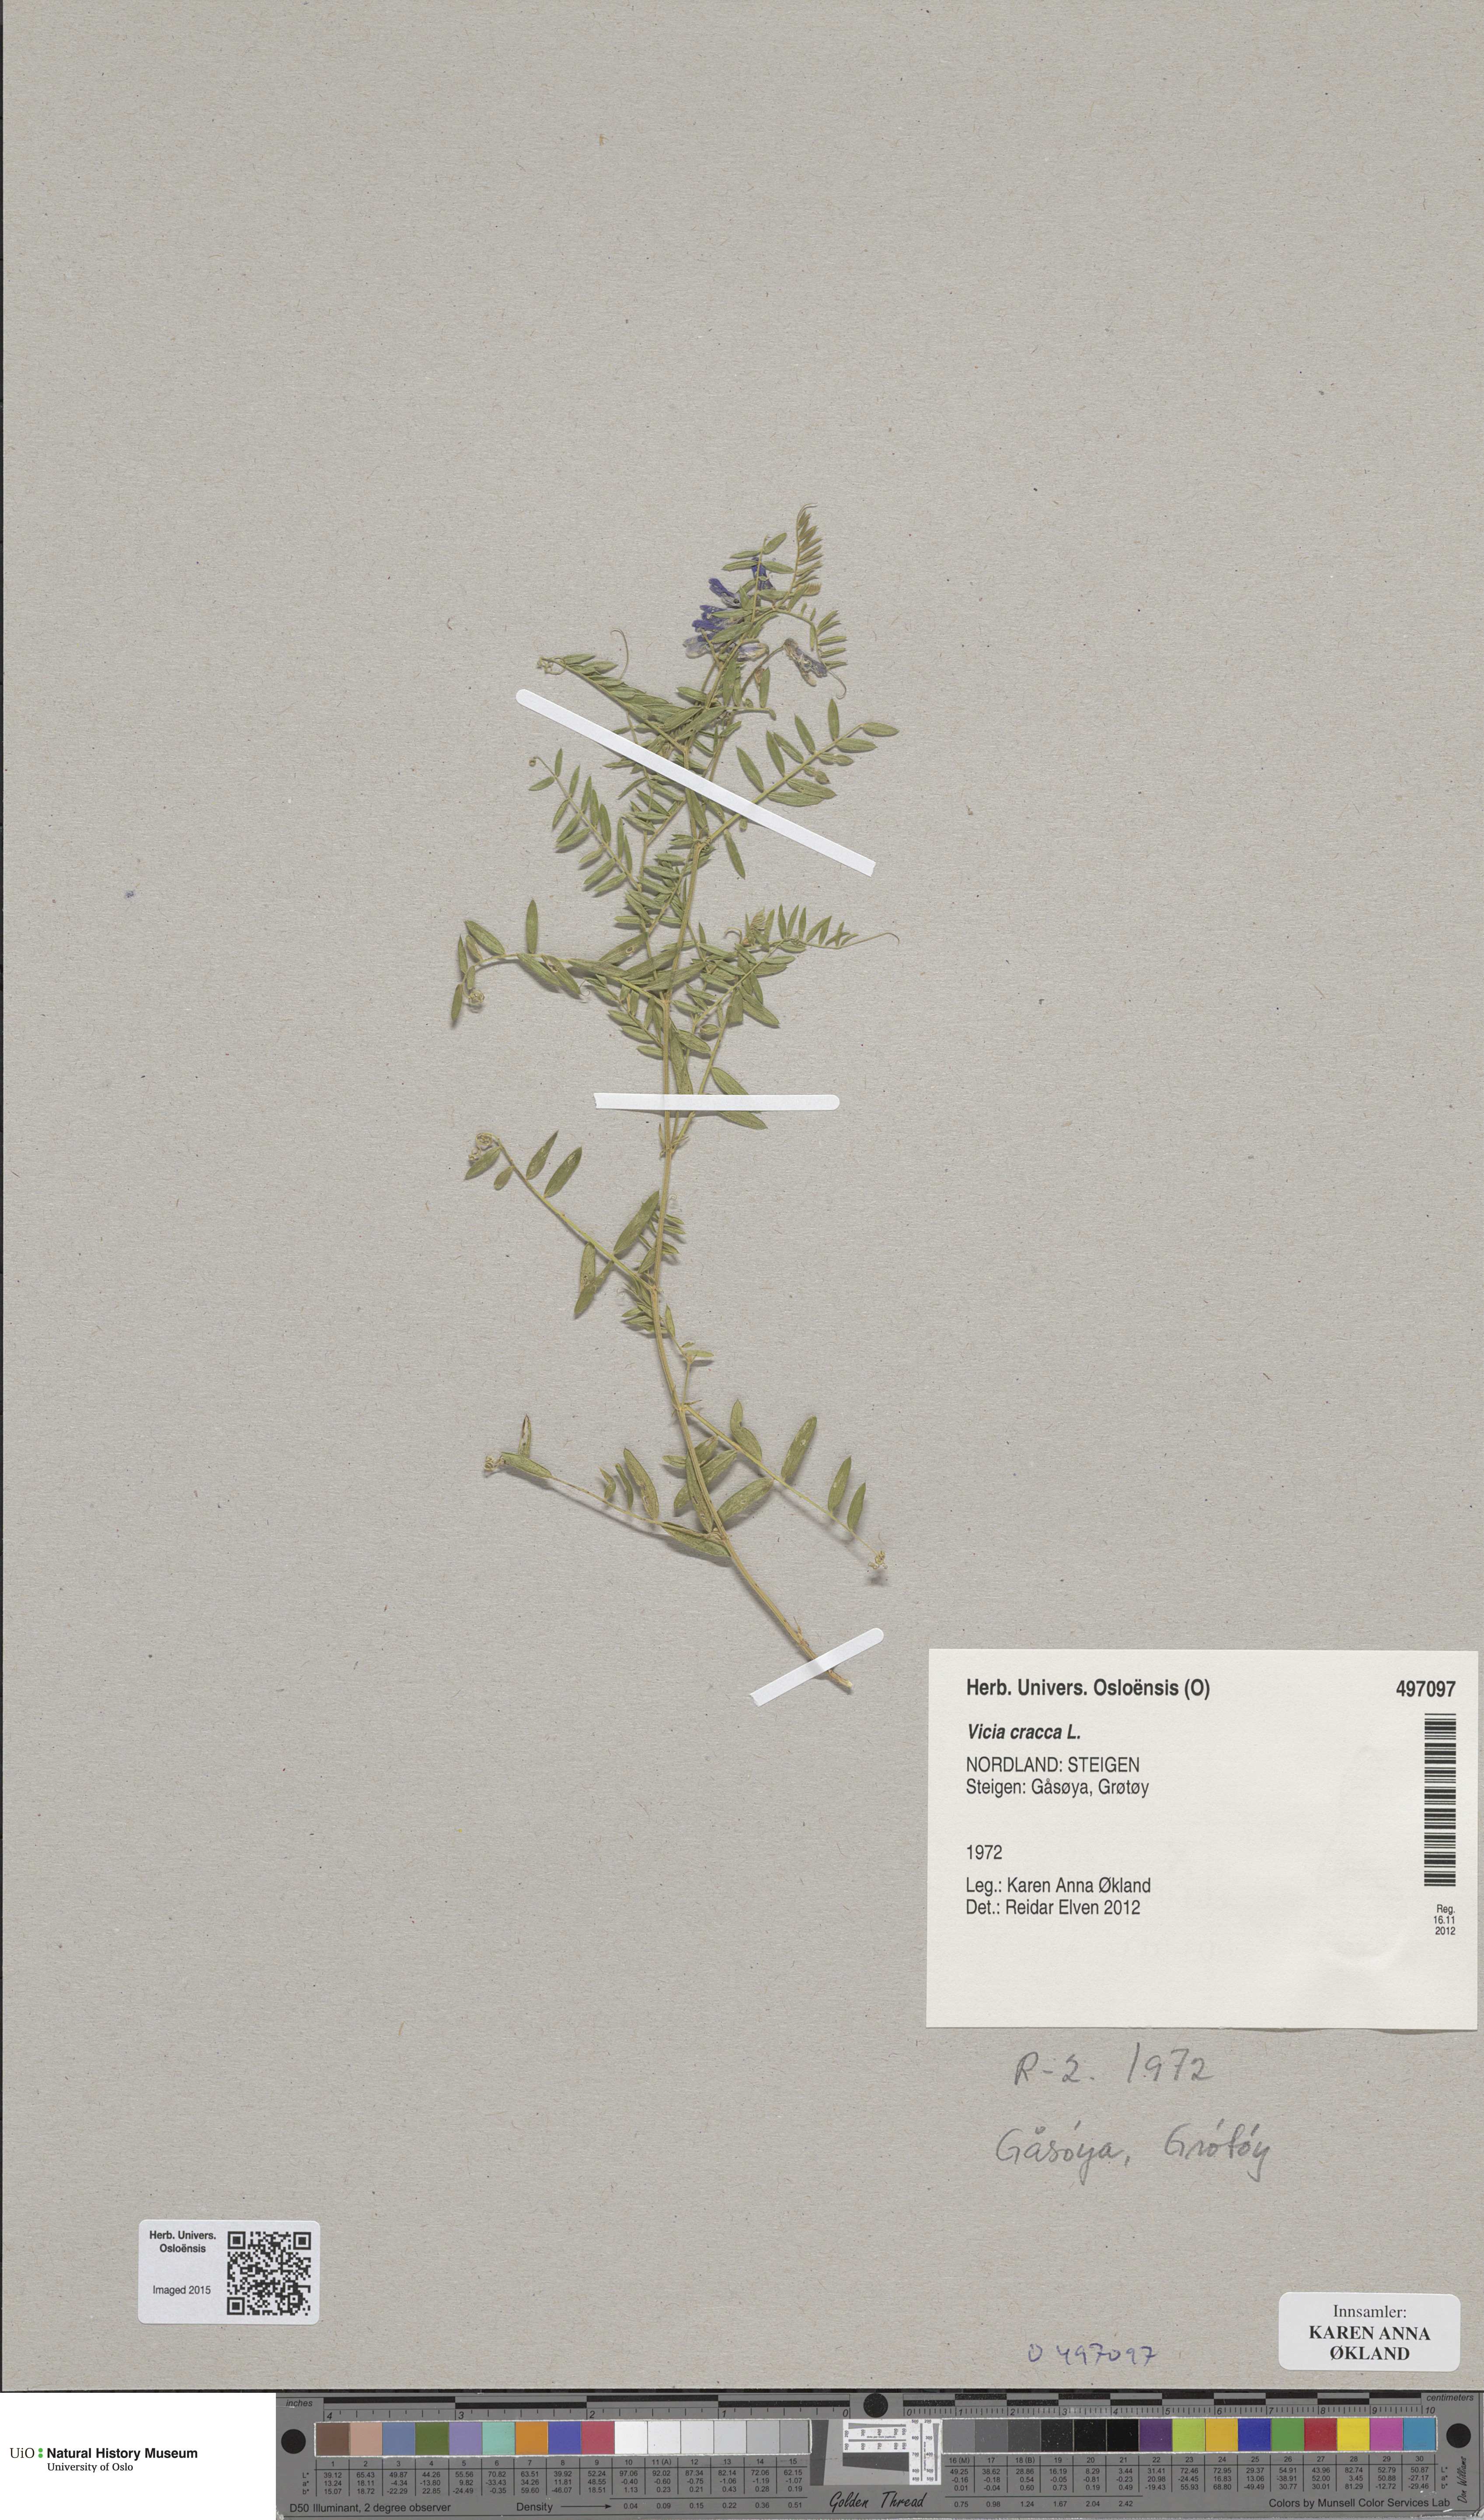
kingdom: Plantae
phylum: Tracheophyta
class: Magnoliopsida
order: Fabales
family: Fabaceae
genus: Vicia
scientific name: Vicia cracca
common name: Bird vetch
